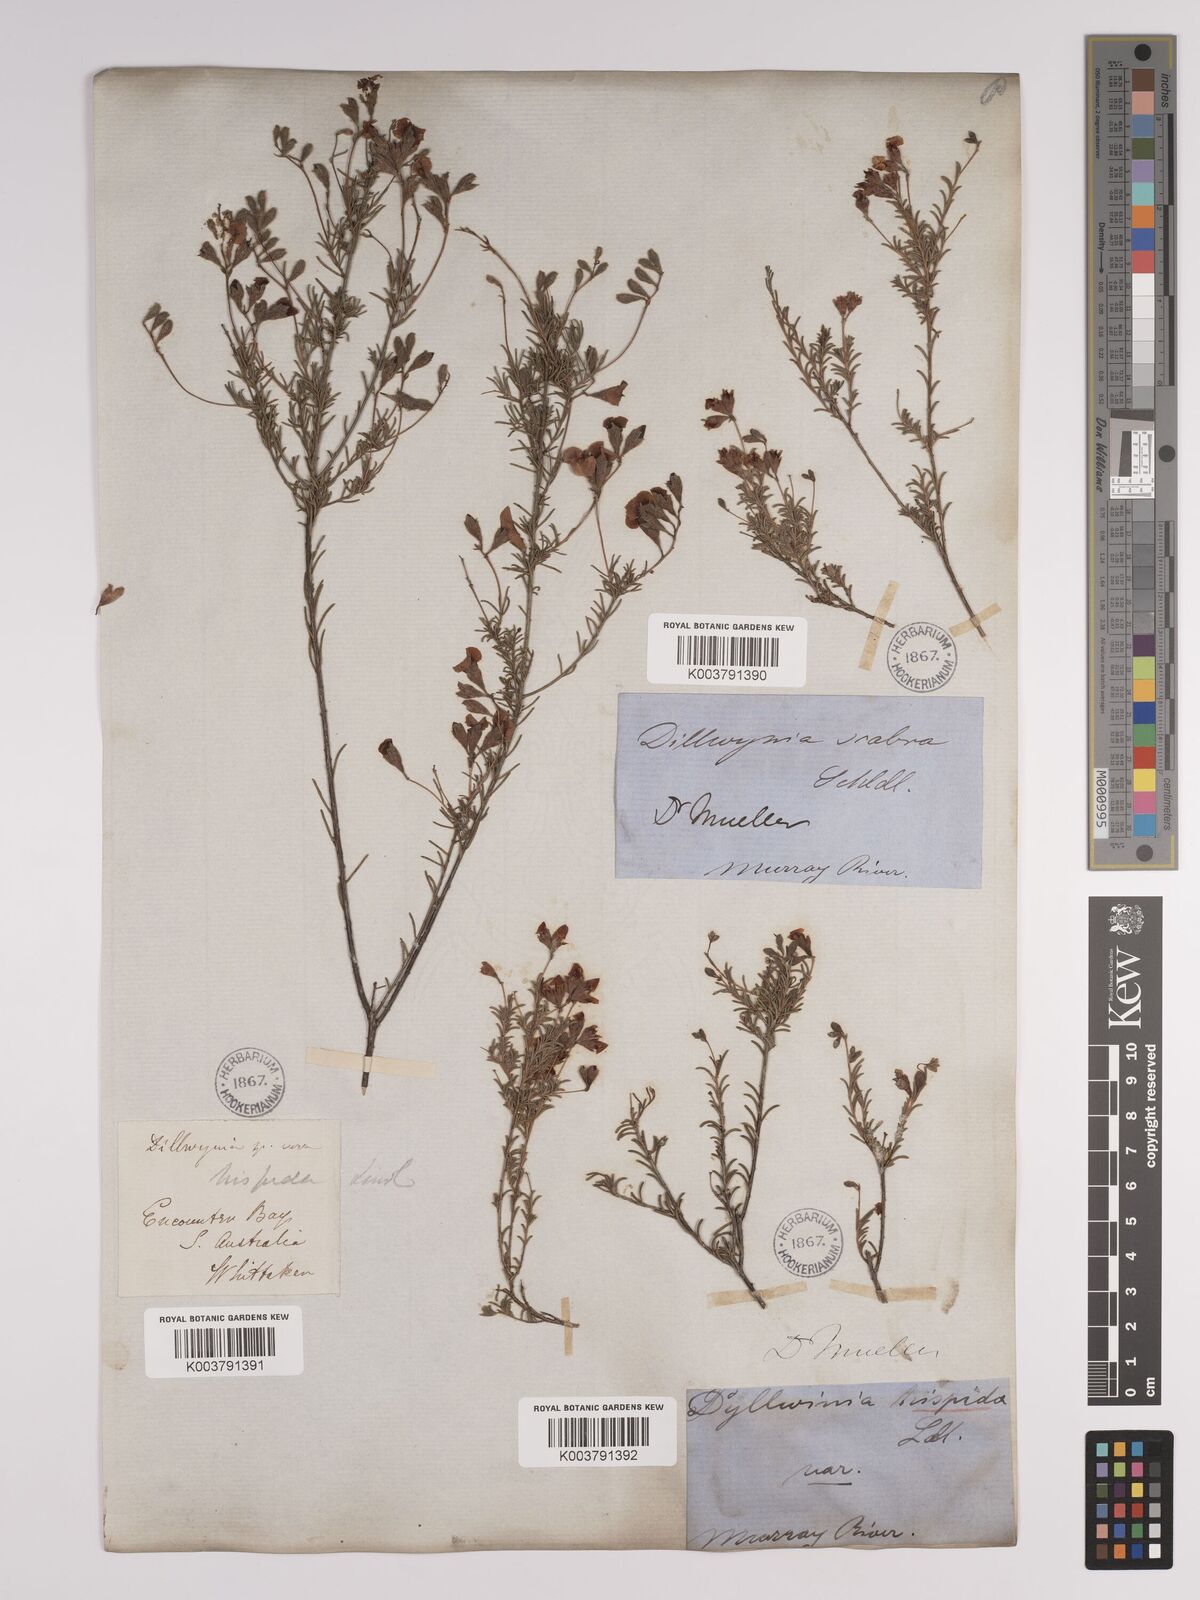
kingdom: Plantae
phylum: Tracheophyta
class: Magnoliopsida
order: Fabales
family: Fabaceae
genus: Dillwynia
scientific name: Dillwynia hispida
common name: Red parrot-pea
